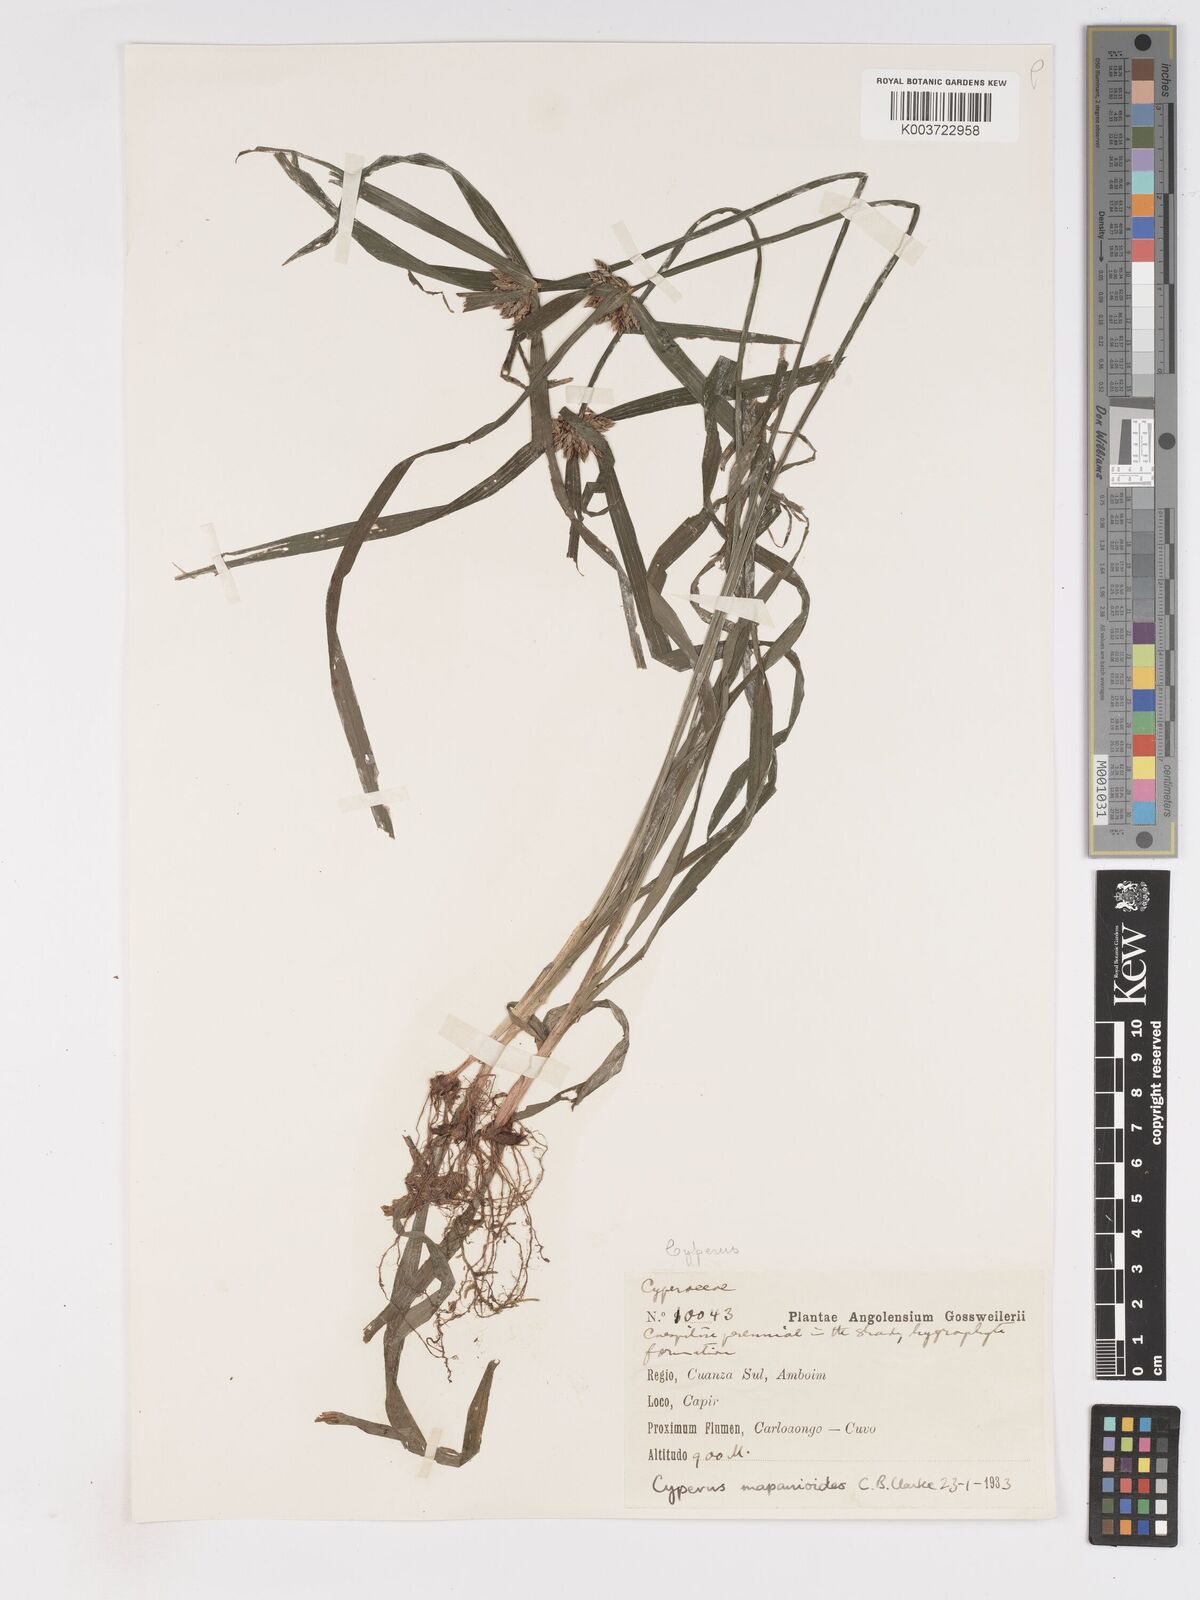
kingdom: Plantae
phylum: Tracheophyta
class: Liliopsida
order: Poales
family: Cyperaceae
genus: Cyperus
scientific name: Cyperus mapanioides
